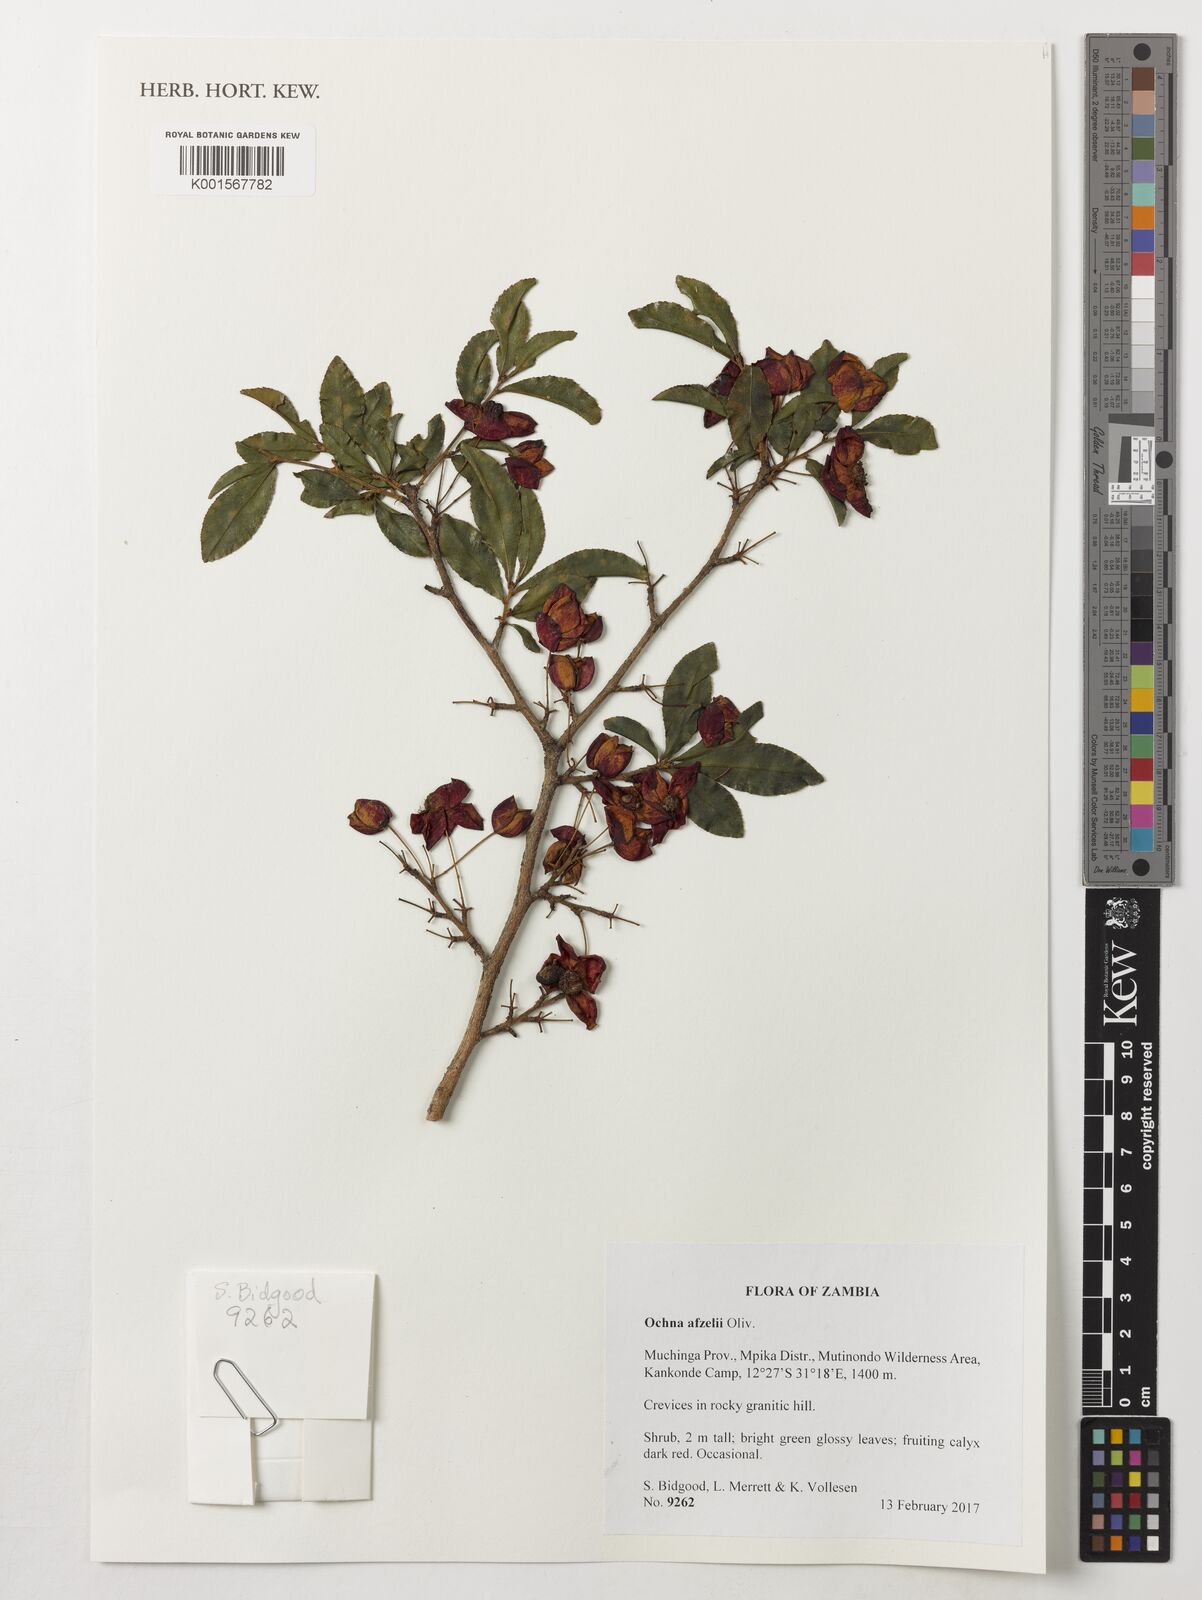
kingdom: Plantae
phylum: Tracheophyta
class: Magnoliopsida
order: Malpighiales
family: Ochnaceae
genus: Ochna
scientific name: Ochna afzelii
